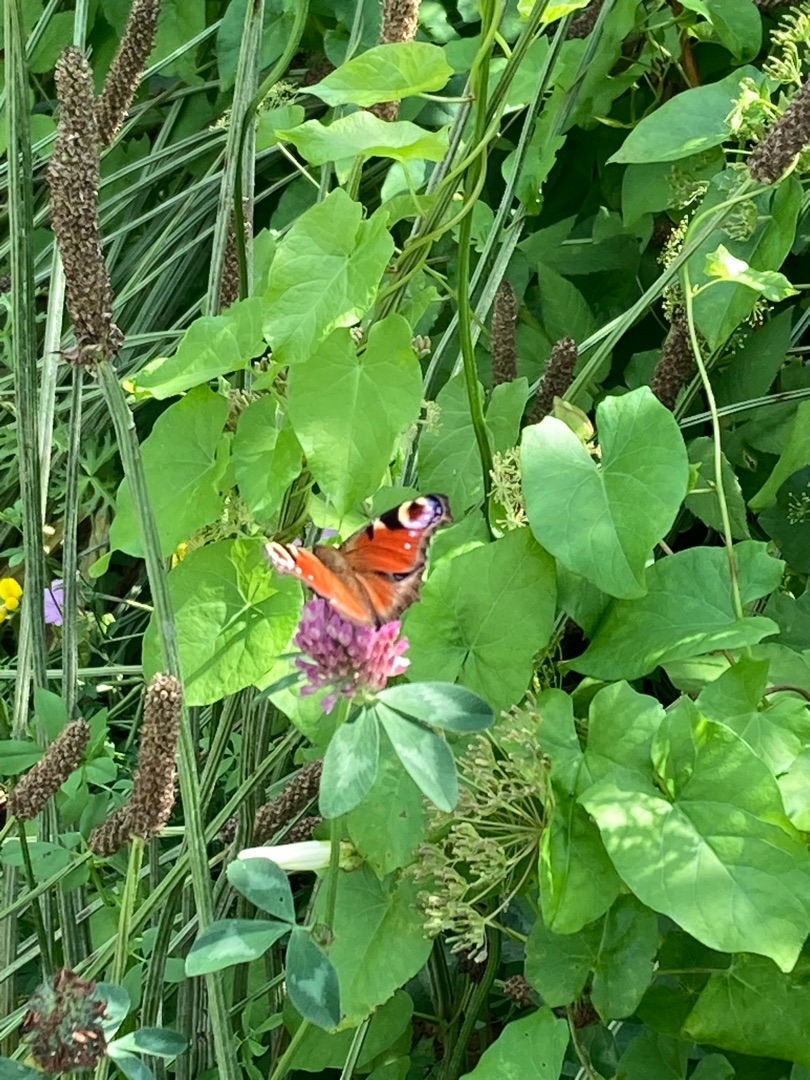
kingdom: Animalia
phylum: Arthropoda
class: Insecta
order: Lepidoptera
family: Nymphalidae
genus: Aglais
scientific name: Aglais io
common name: Dagpåfugleøje
